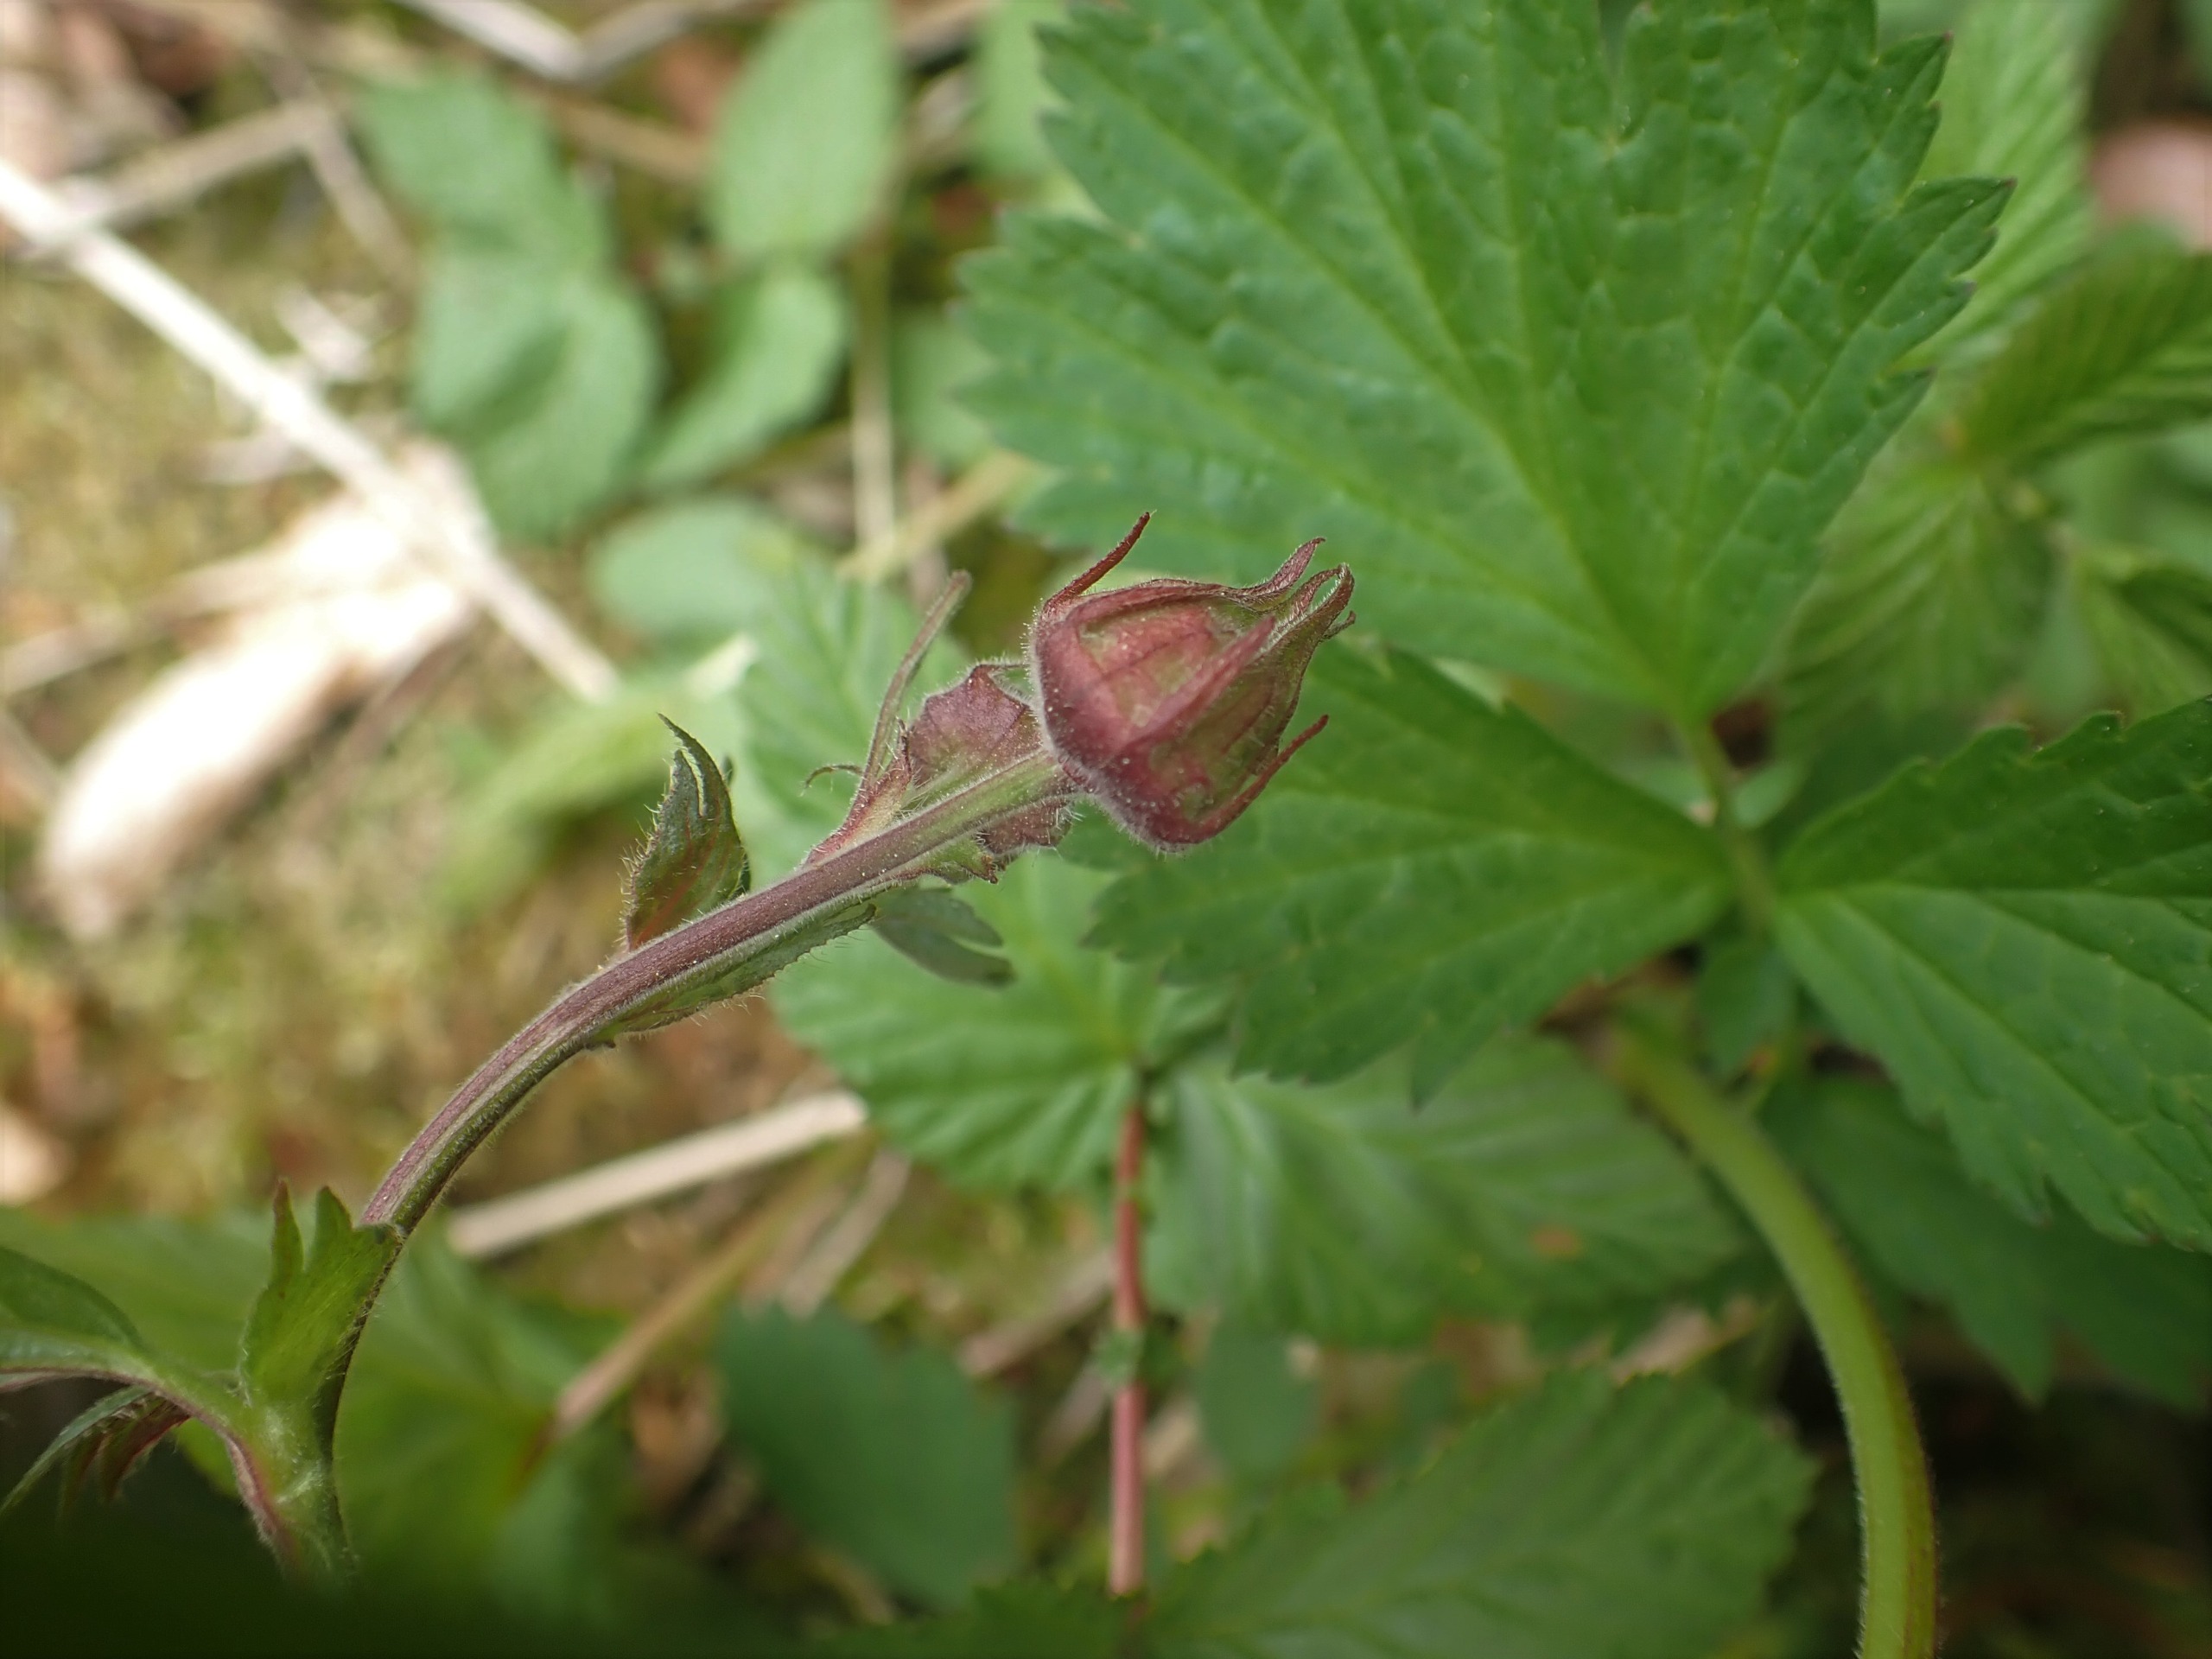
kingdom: Plantae
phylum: Tracheophyta
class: Magnoliopsida
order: Rosales
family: Rosaceae
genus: Geum
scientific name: Geum rivale
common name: Eng-nellikerod
